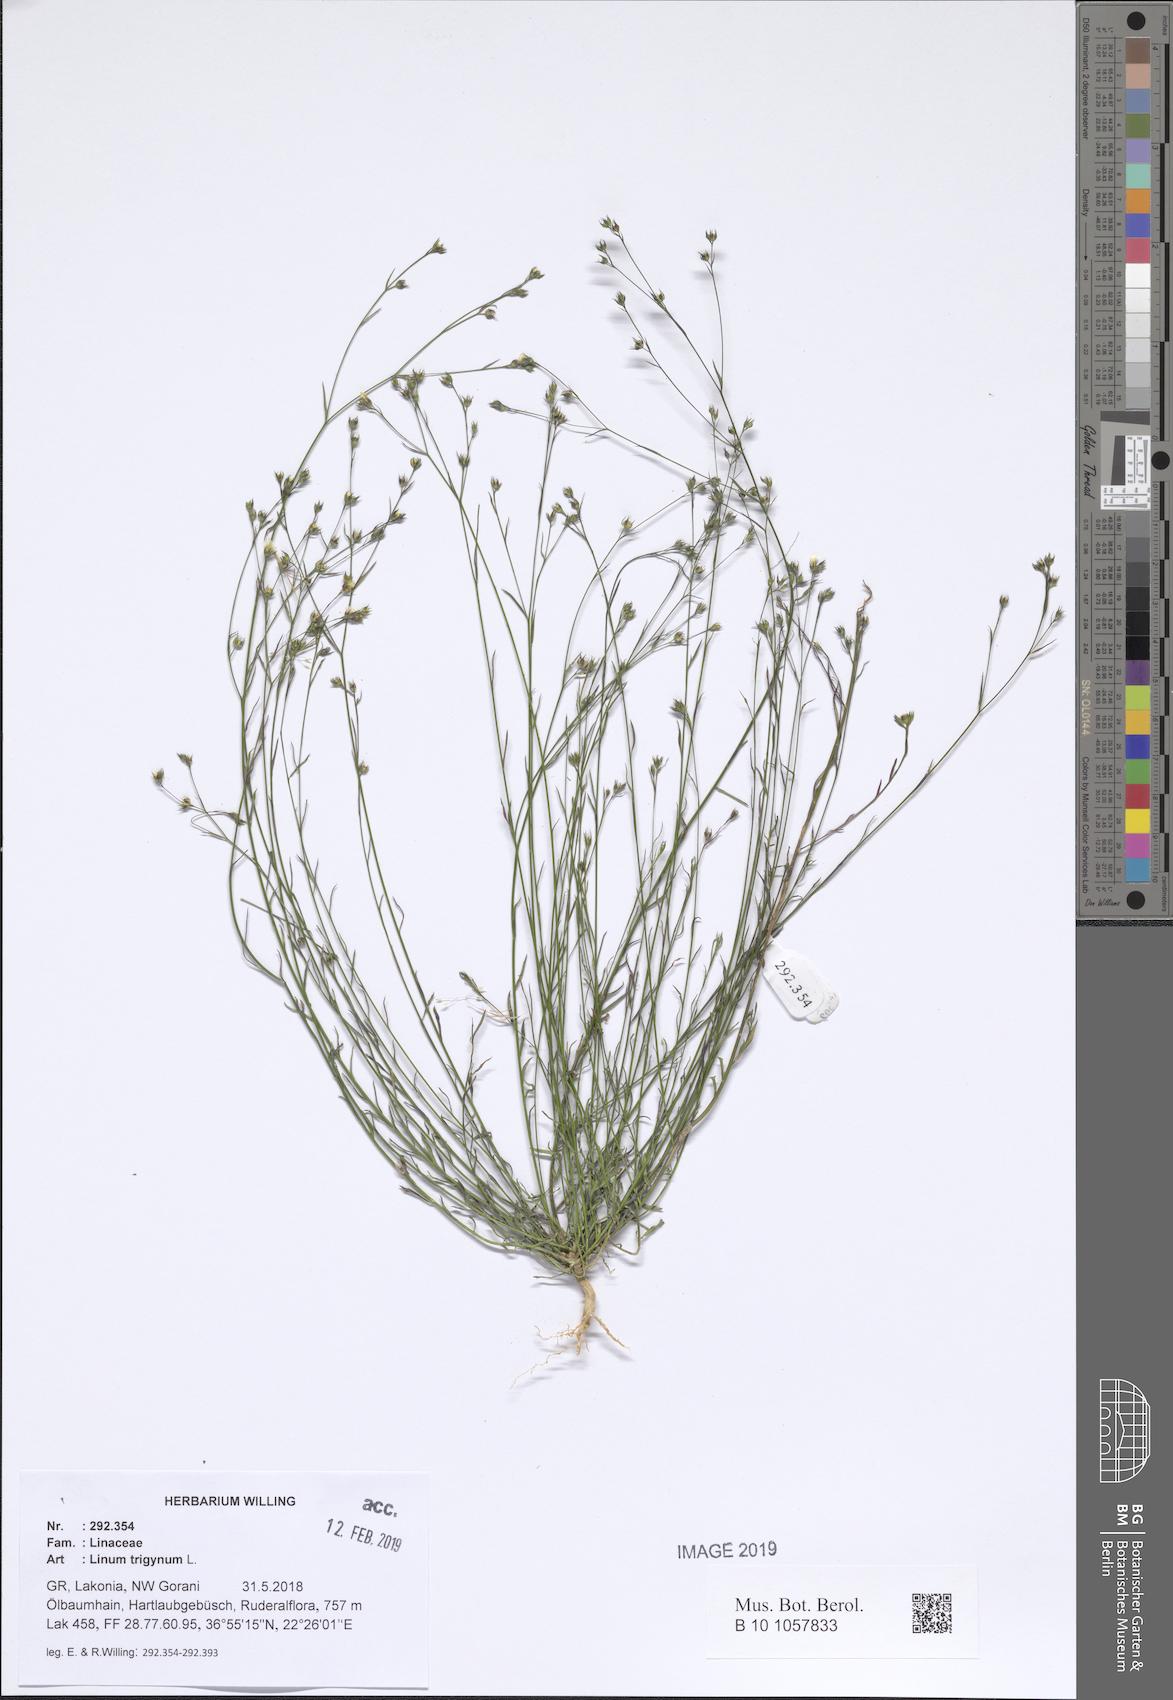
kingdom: Plantae
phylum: Tracheophyta
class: Magnoliopsida
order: Malpighiales
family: Linaceae
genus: Linum
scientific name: Linum trigynum
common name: French flax
